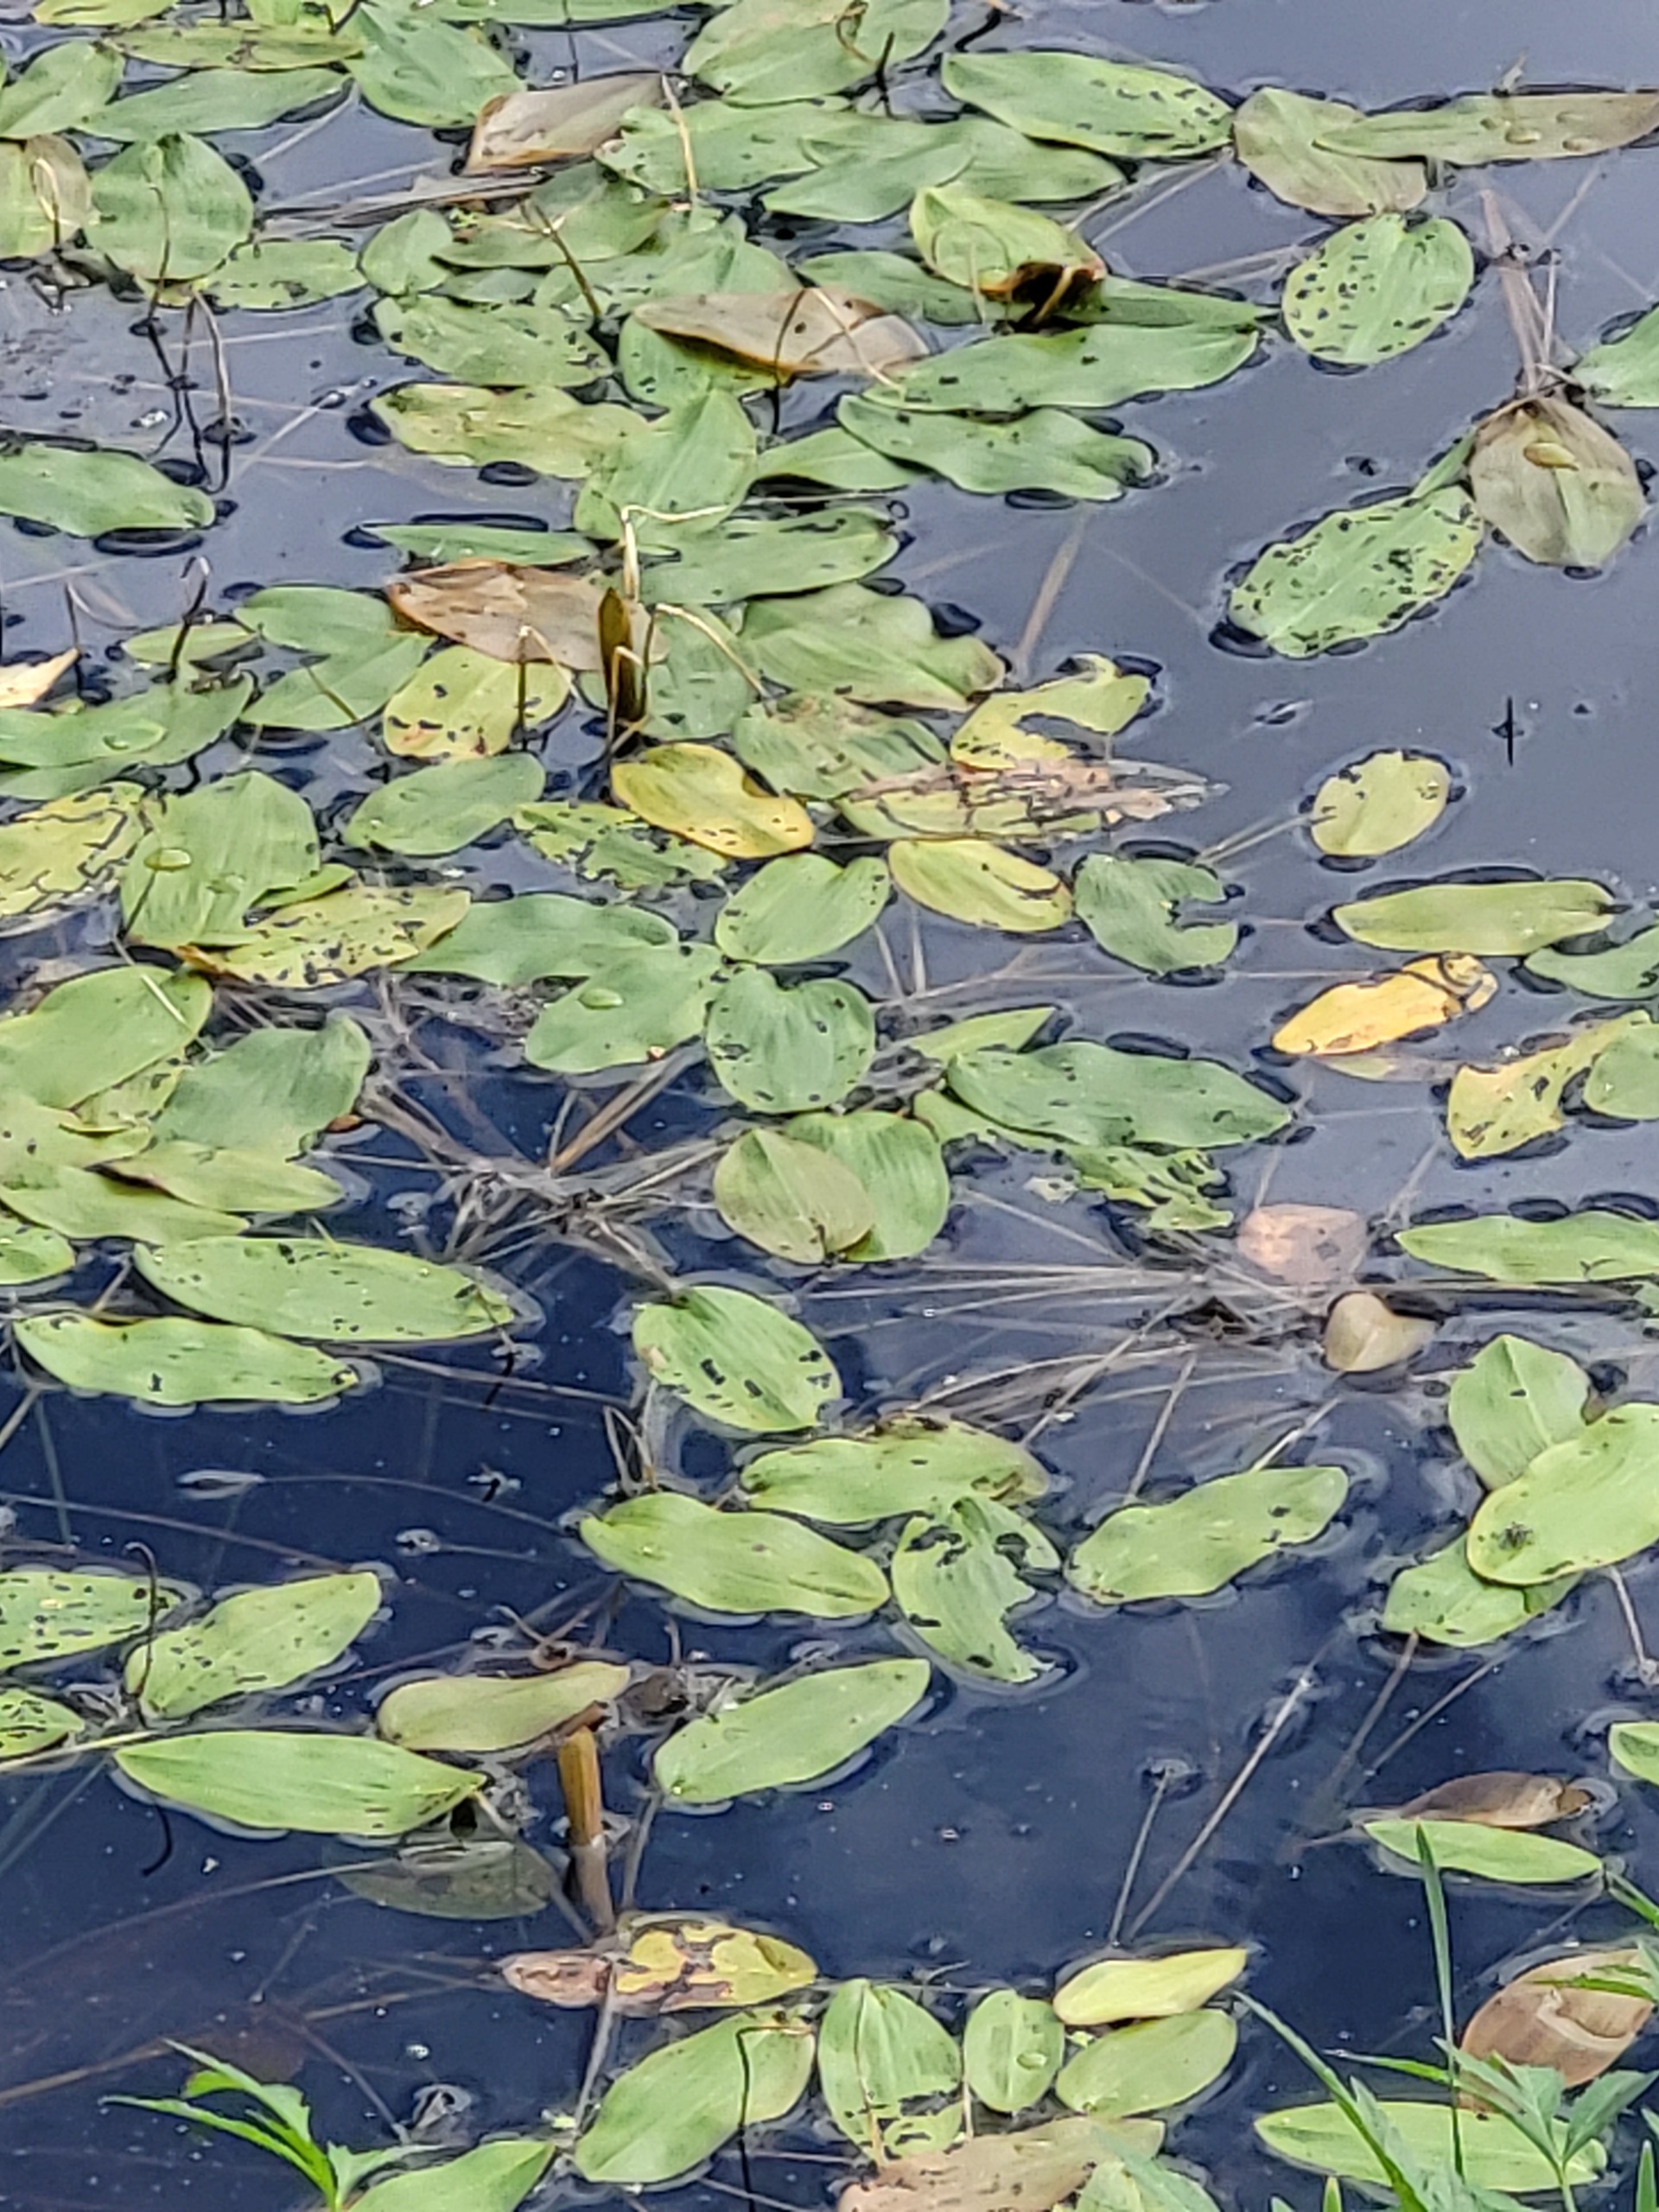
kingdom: Plantae
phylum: Tracheophyta
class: Liliopsida
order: Alismatales
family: Potamogetonaceae
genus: Potamogeton
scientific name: Potamogeton natans
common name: Svømmende vandaks
